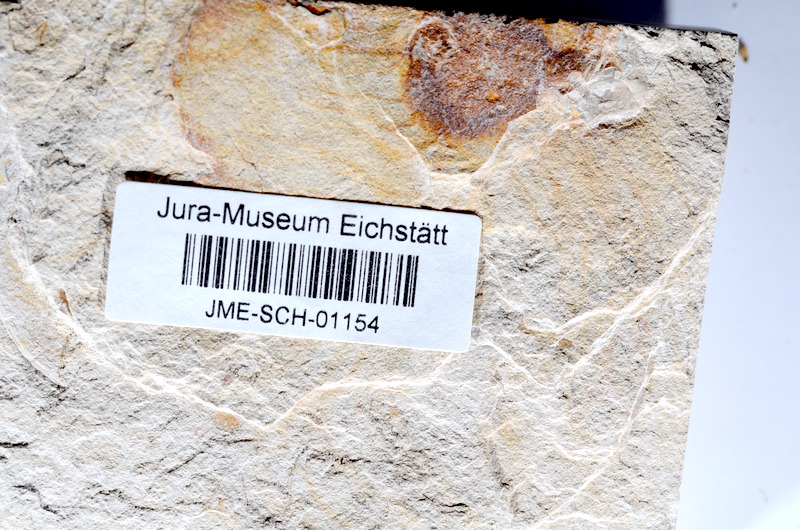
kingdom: Animalia
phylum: Chordata
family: Ascalaboidae
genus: Tharsis
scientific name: Tharsis dubius
